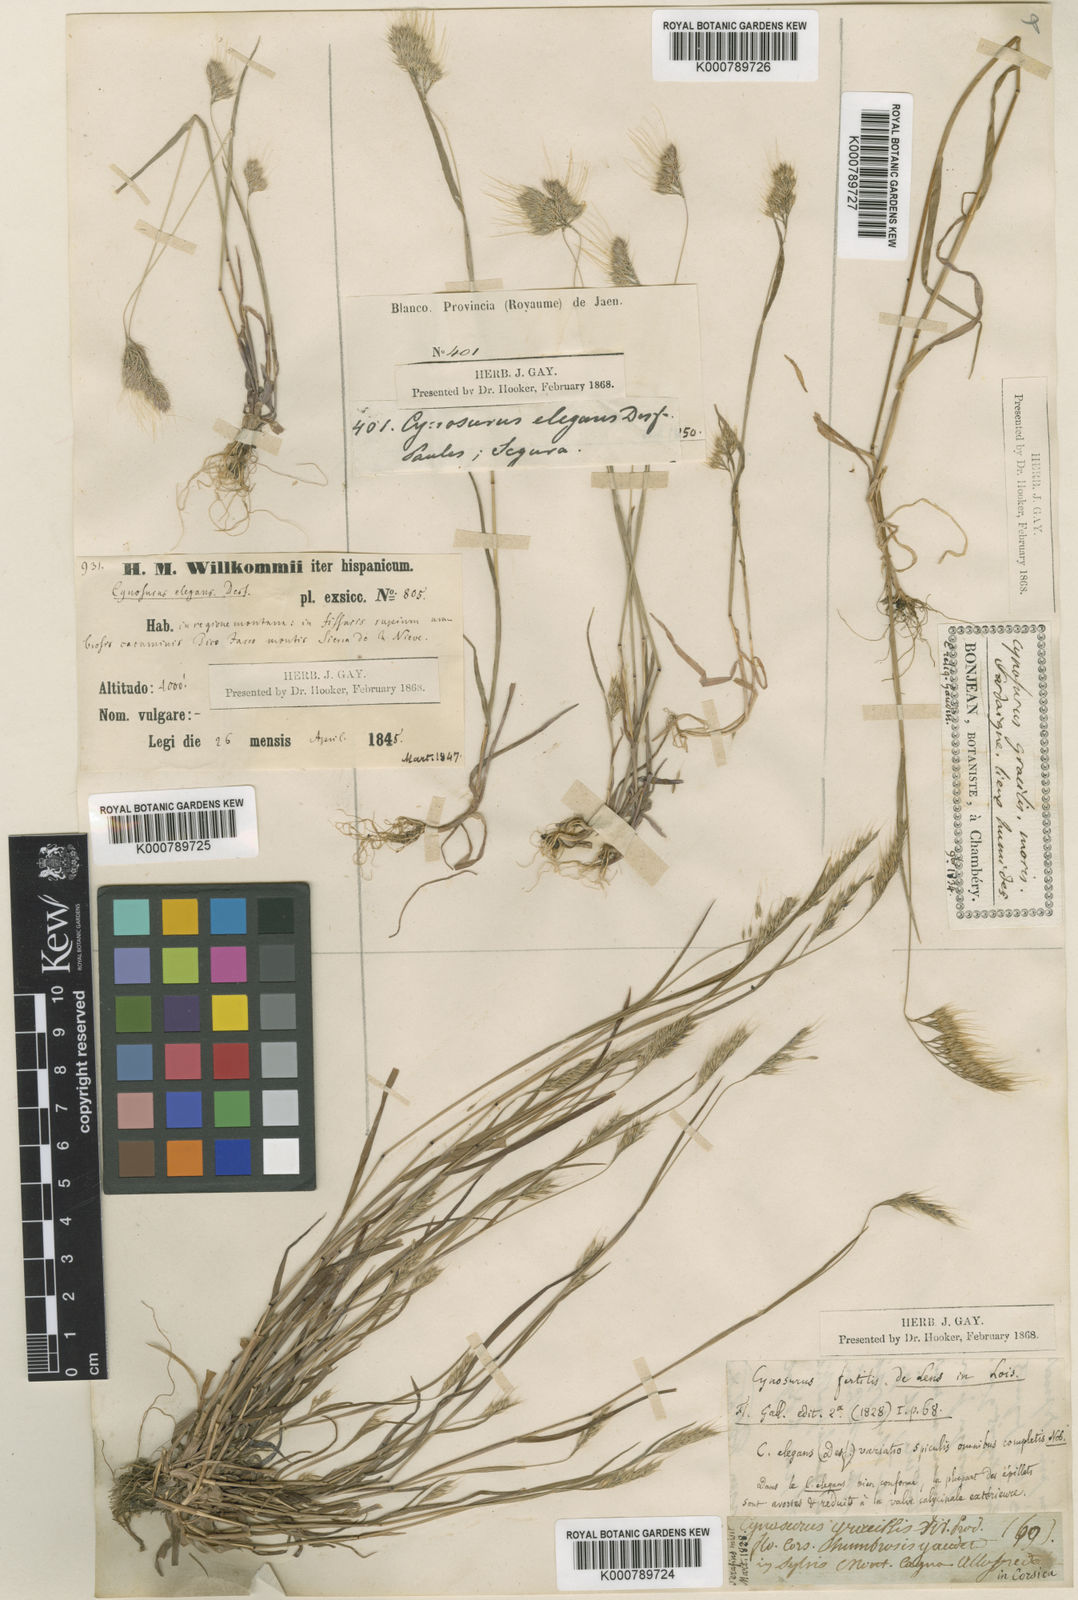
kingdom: Plantae
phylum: Tracheophyta
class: Liliopsida
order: Poales
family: Poaceae
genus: Cynosurus
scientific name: Cynosurus elegans
